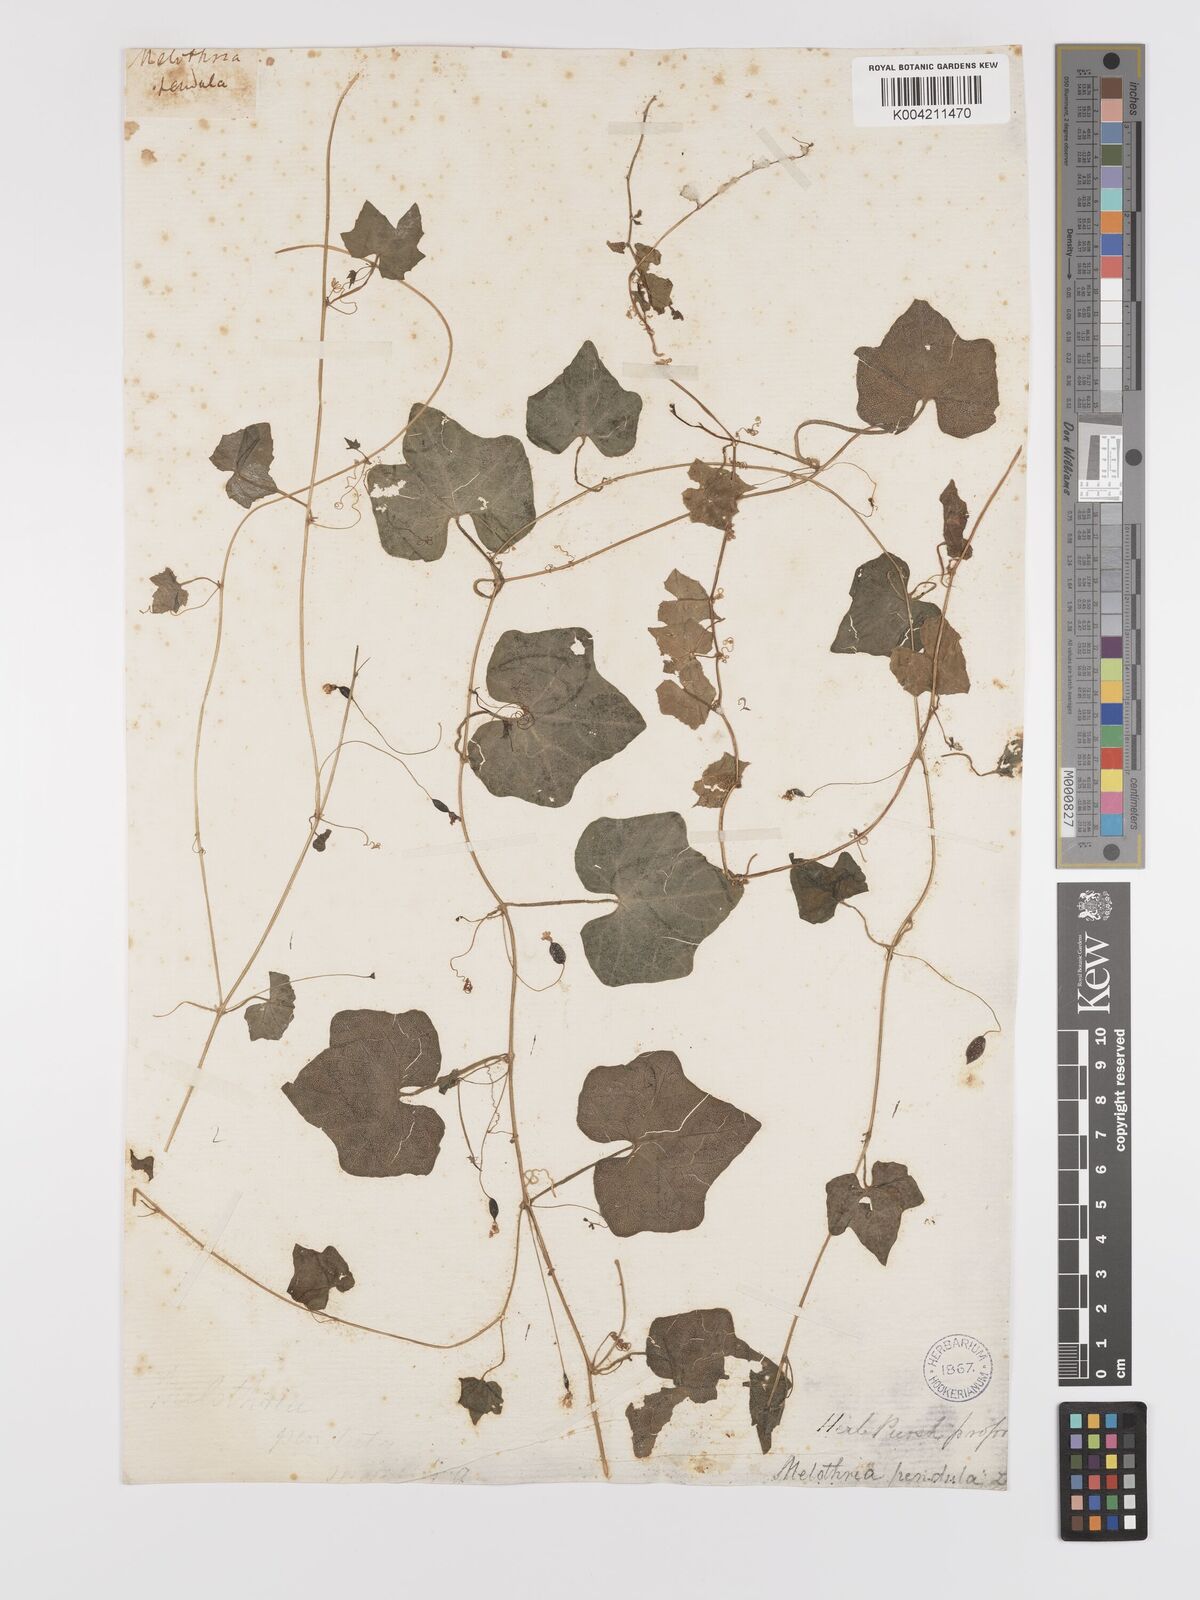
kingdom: Plantae
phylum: Tracheophyta
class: Magnoliopsida
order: Cucurbitales
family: Cucurbitaceae
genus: Melothria
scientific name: Melothria pendula
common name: Creeping-cucumber
